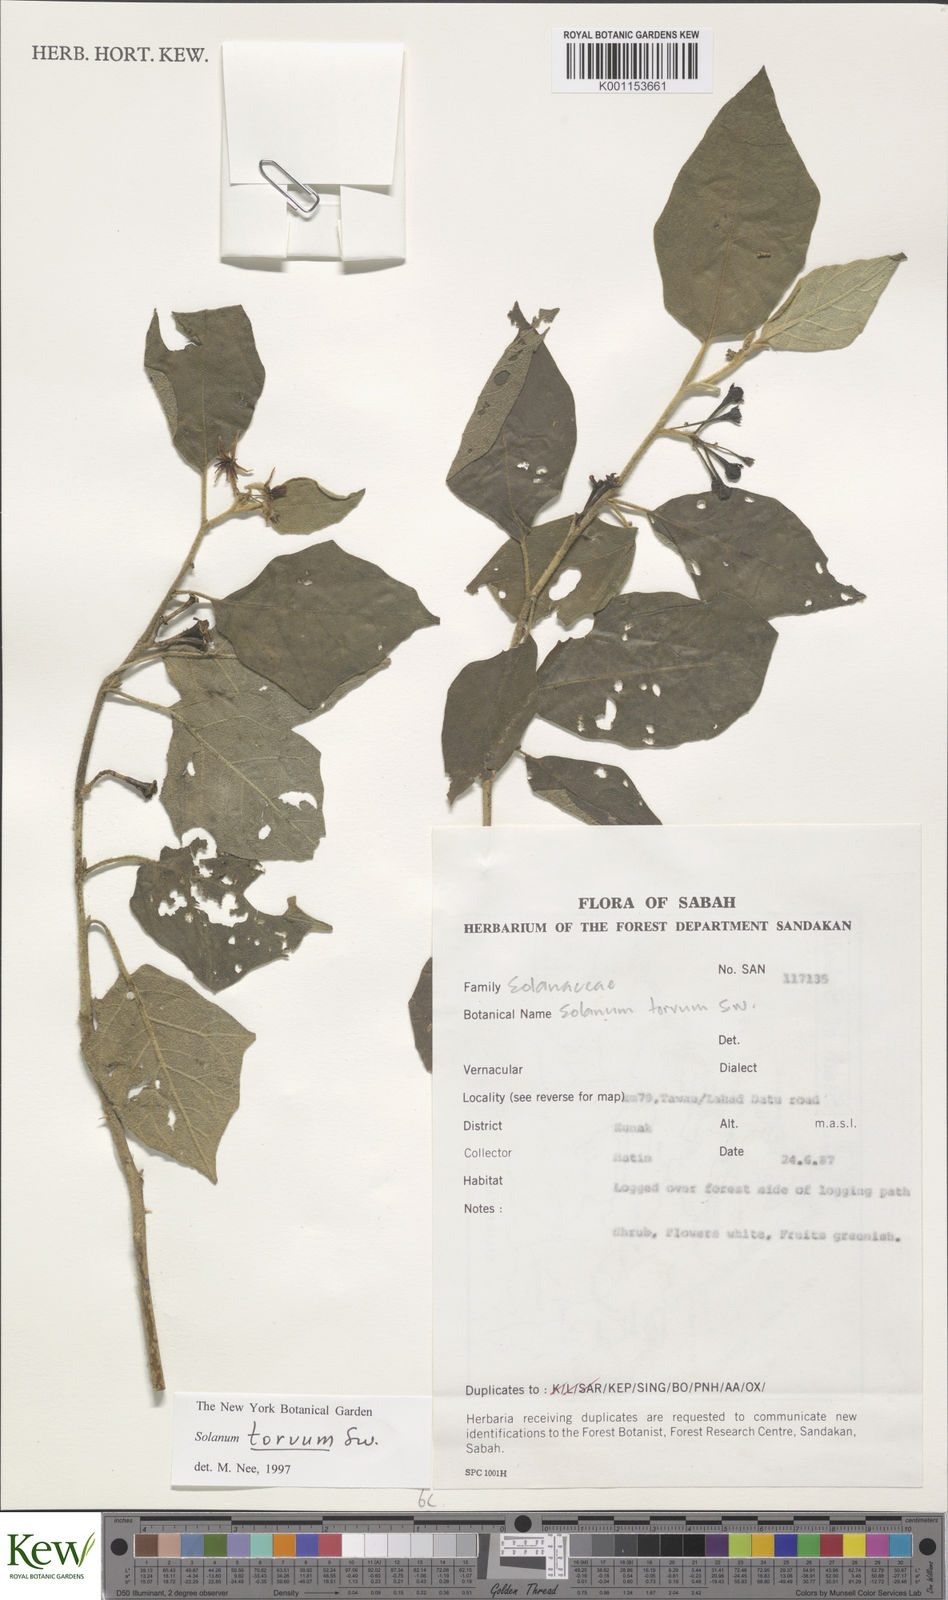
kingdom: Plantae
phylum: Tracheophyta
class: Magnoliopsida
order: Solanales
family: Solanaceae
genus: Solanum
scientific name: Solanum torvum
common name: Turkey berry
